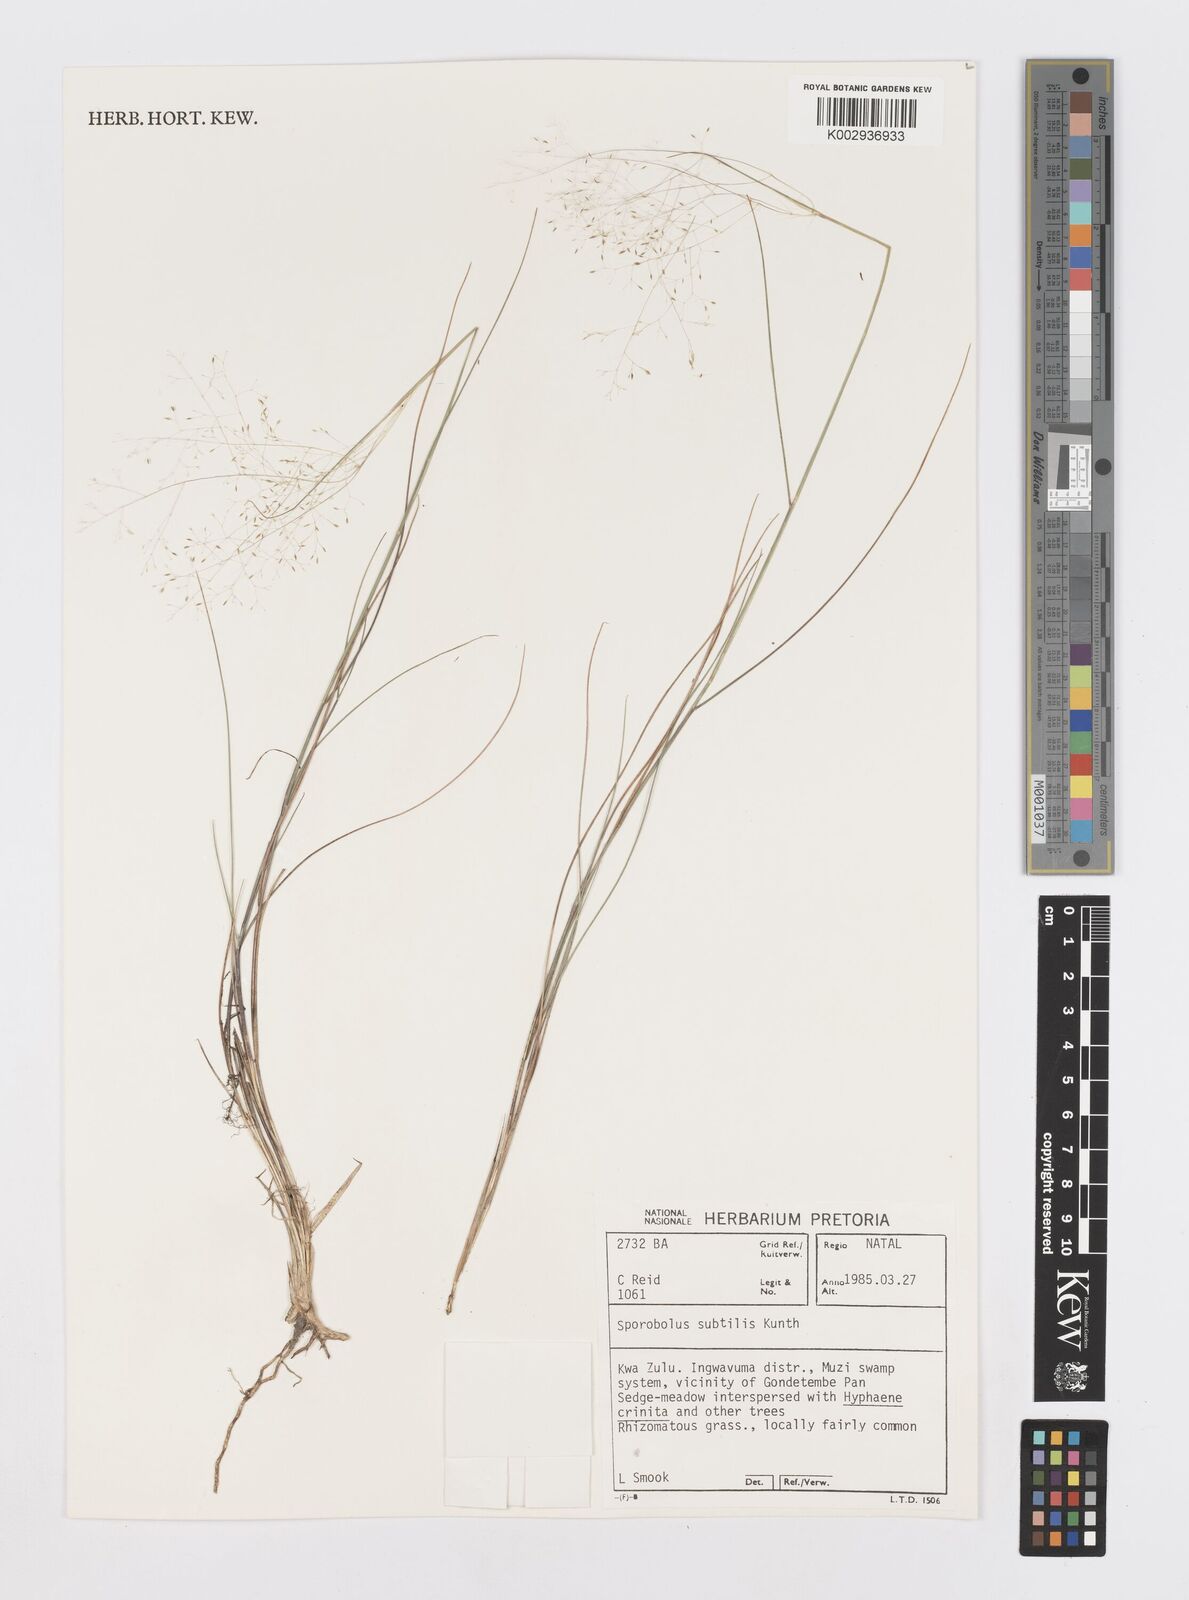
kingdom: Plantae
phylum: Tracheophyta
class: Liliopsida
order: Poales
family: Poaceae
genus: Sporobolus
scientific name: Sporobolus subtilis
